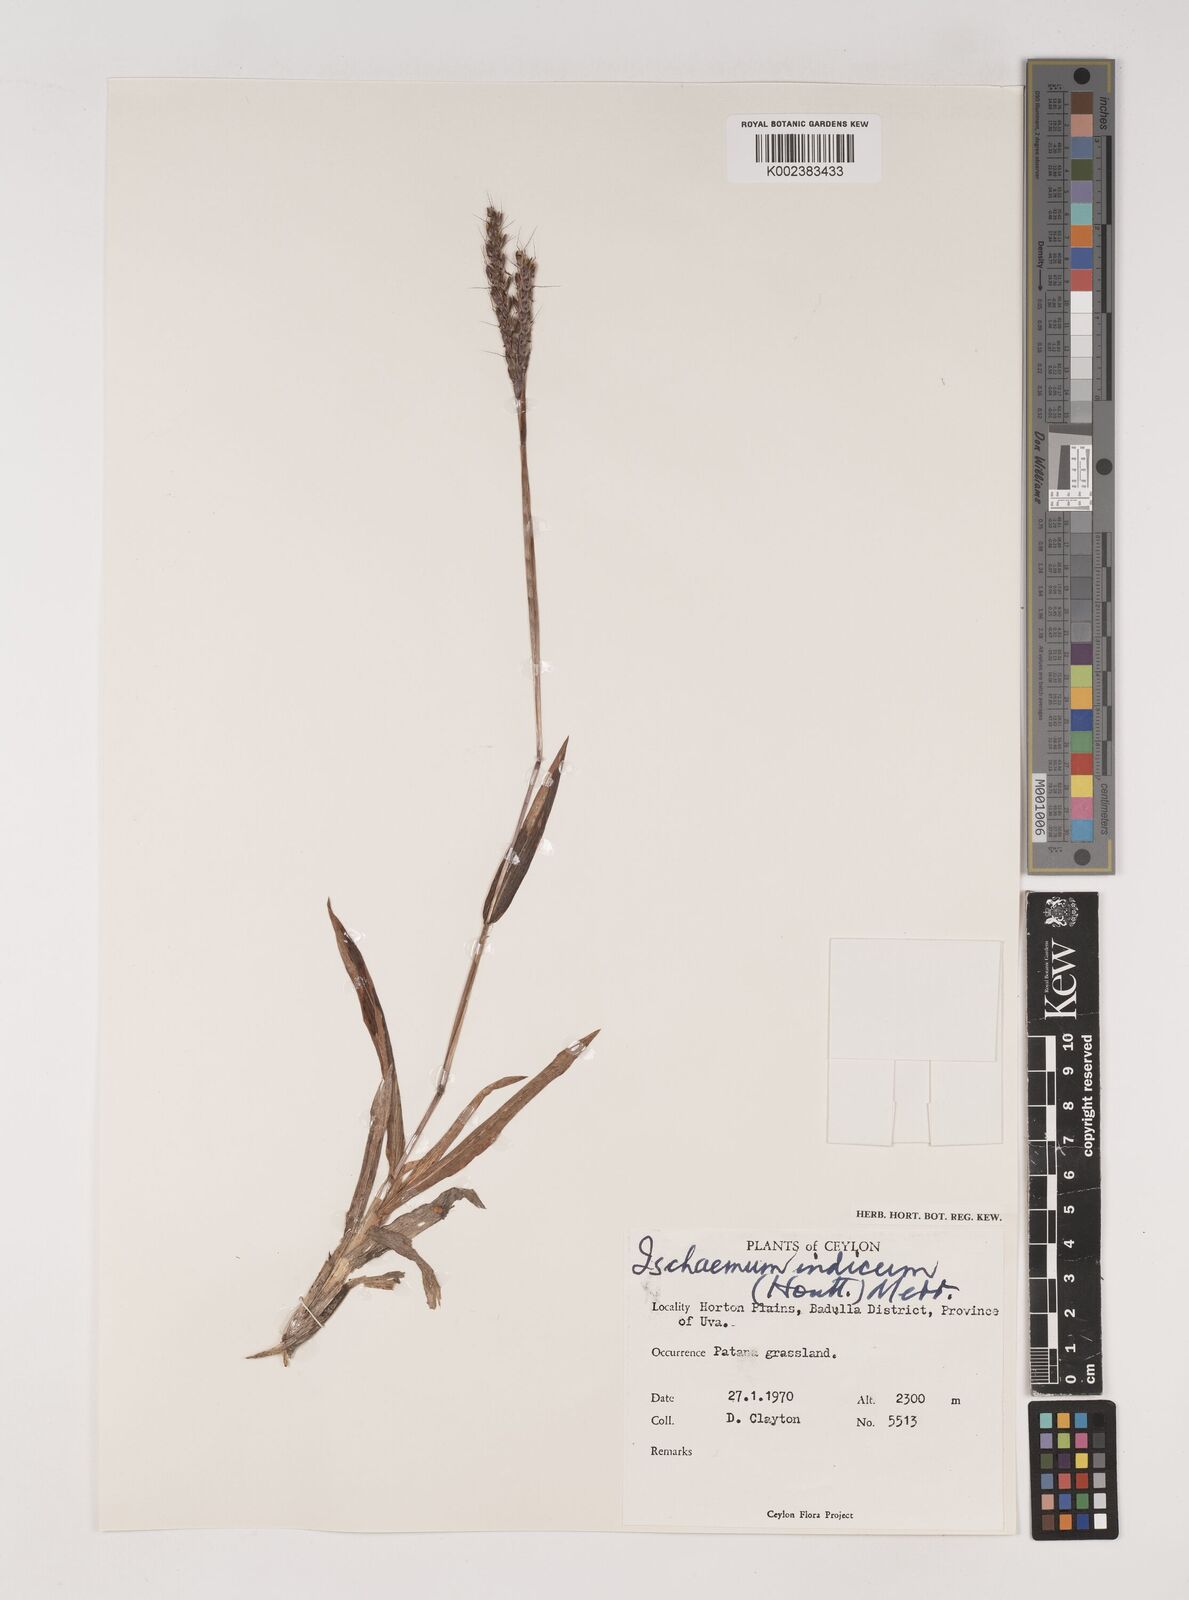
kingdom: Plantae
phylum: Tracheophyta
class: Liliopsida
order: Poales
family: Poaceae
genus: Polytrias
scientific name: Polytrias indica
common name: Indian murainagrass
